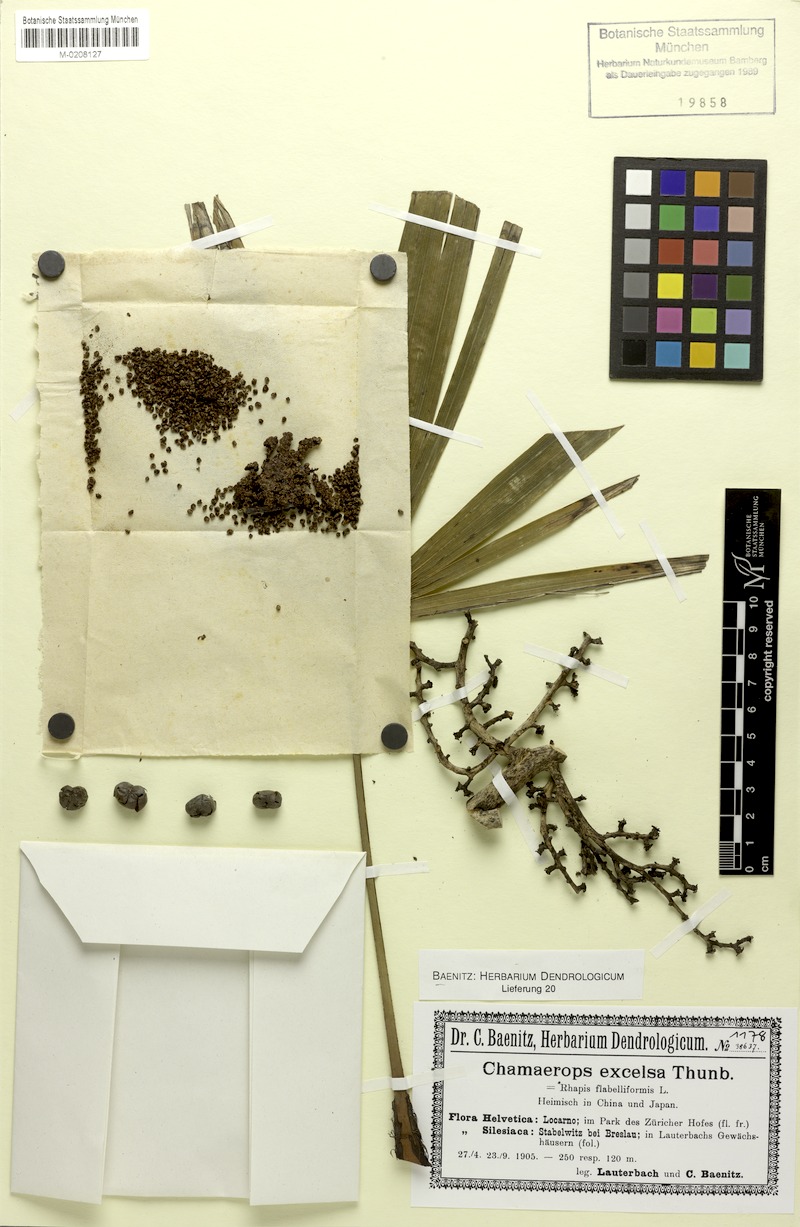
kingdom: Plantae
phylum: Tracheophyta
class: Liliopsida
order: Arecales
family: Arecaceae
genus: Trachycarpus
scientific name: Trachycarpus fortunei
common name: Chusan palm
